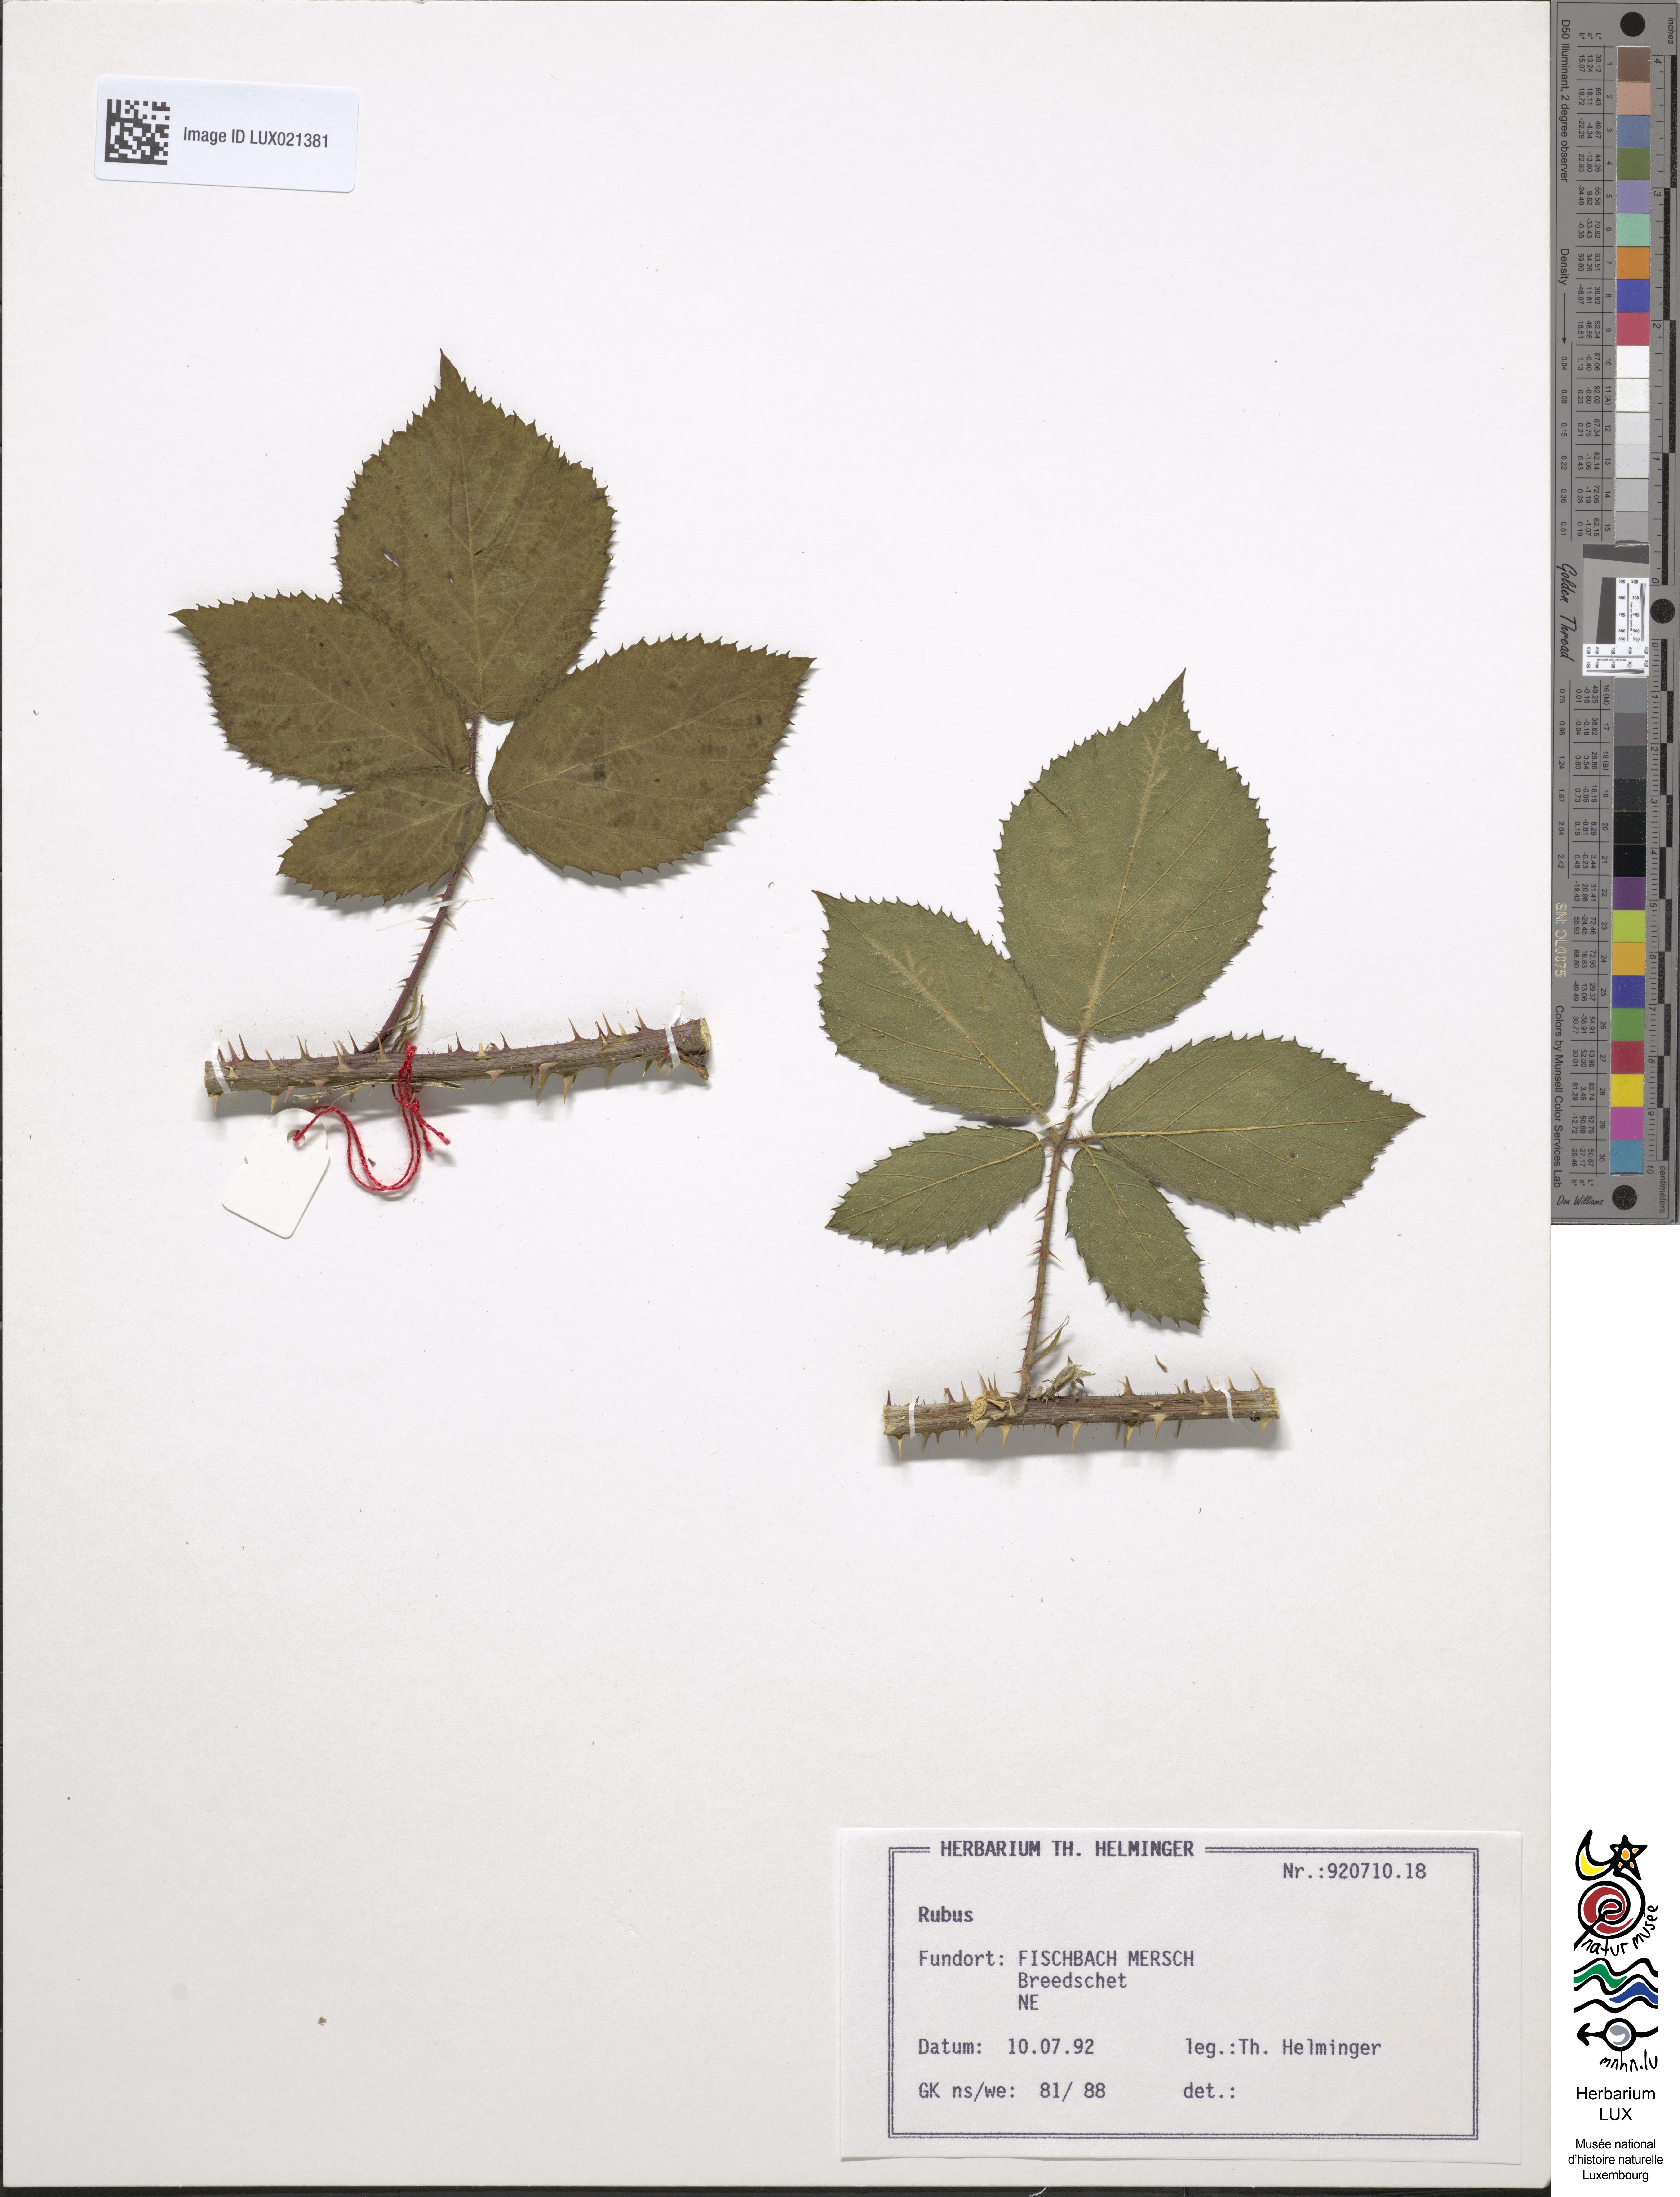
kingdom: Plantae
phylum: Tracheophyta
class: Magnoliopsida
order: Rosales
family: Rosaceae
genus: Rubus
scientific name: Rubus
